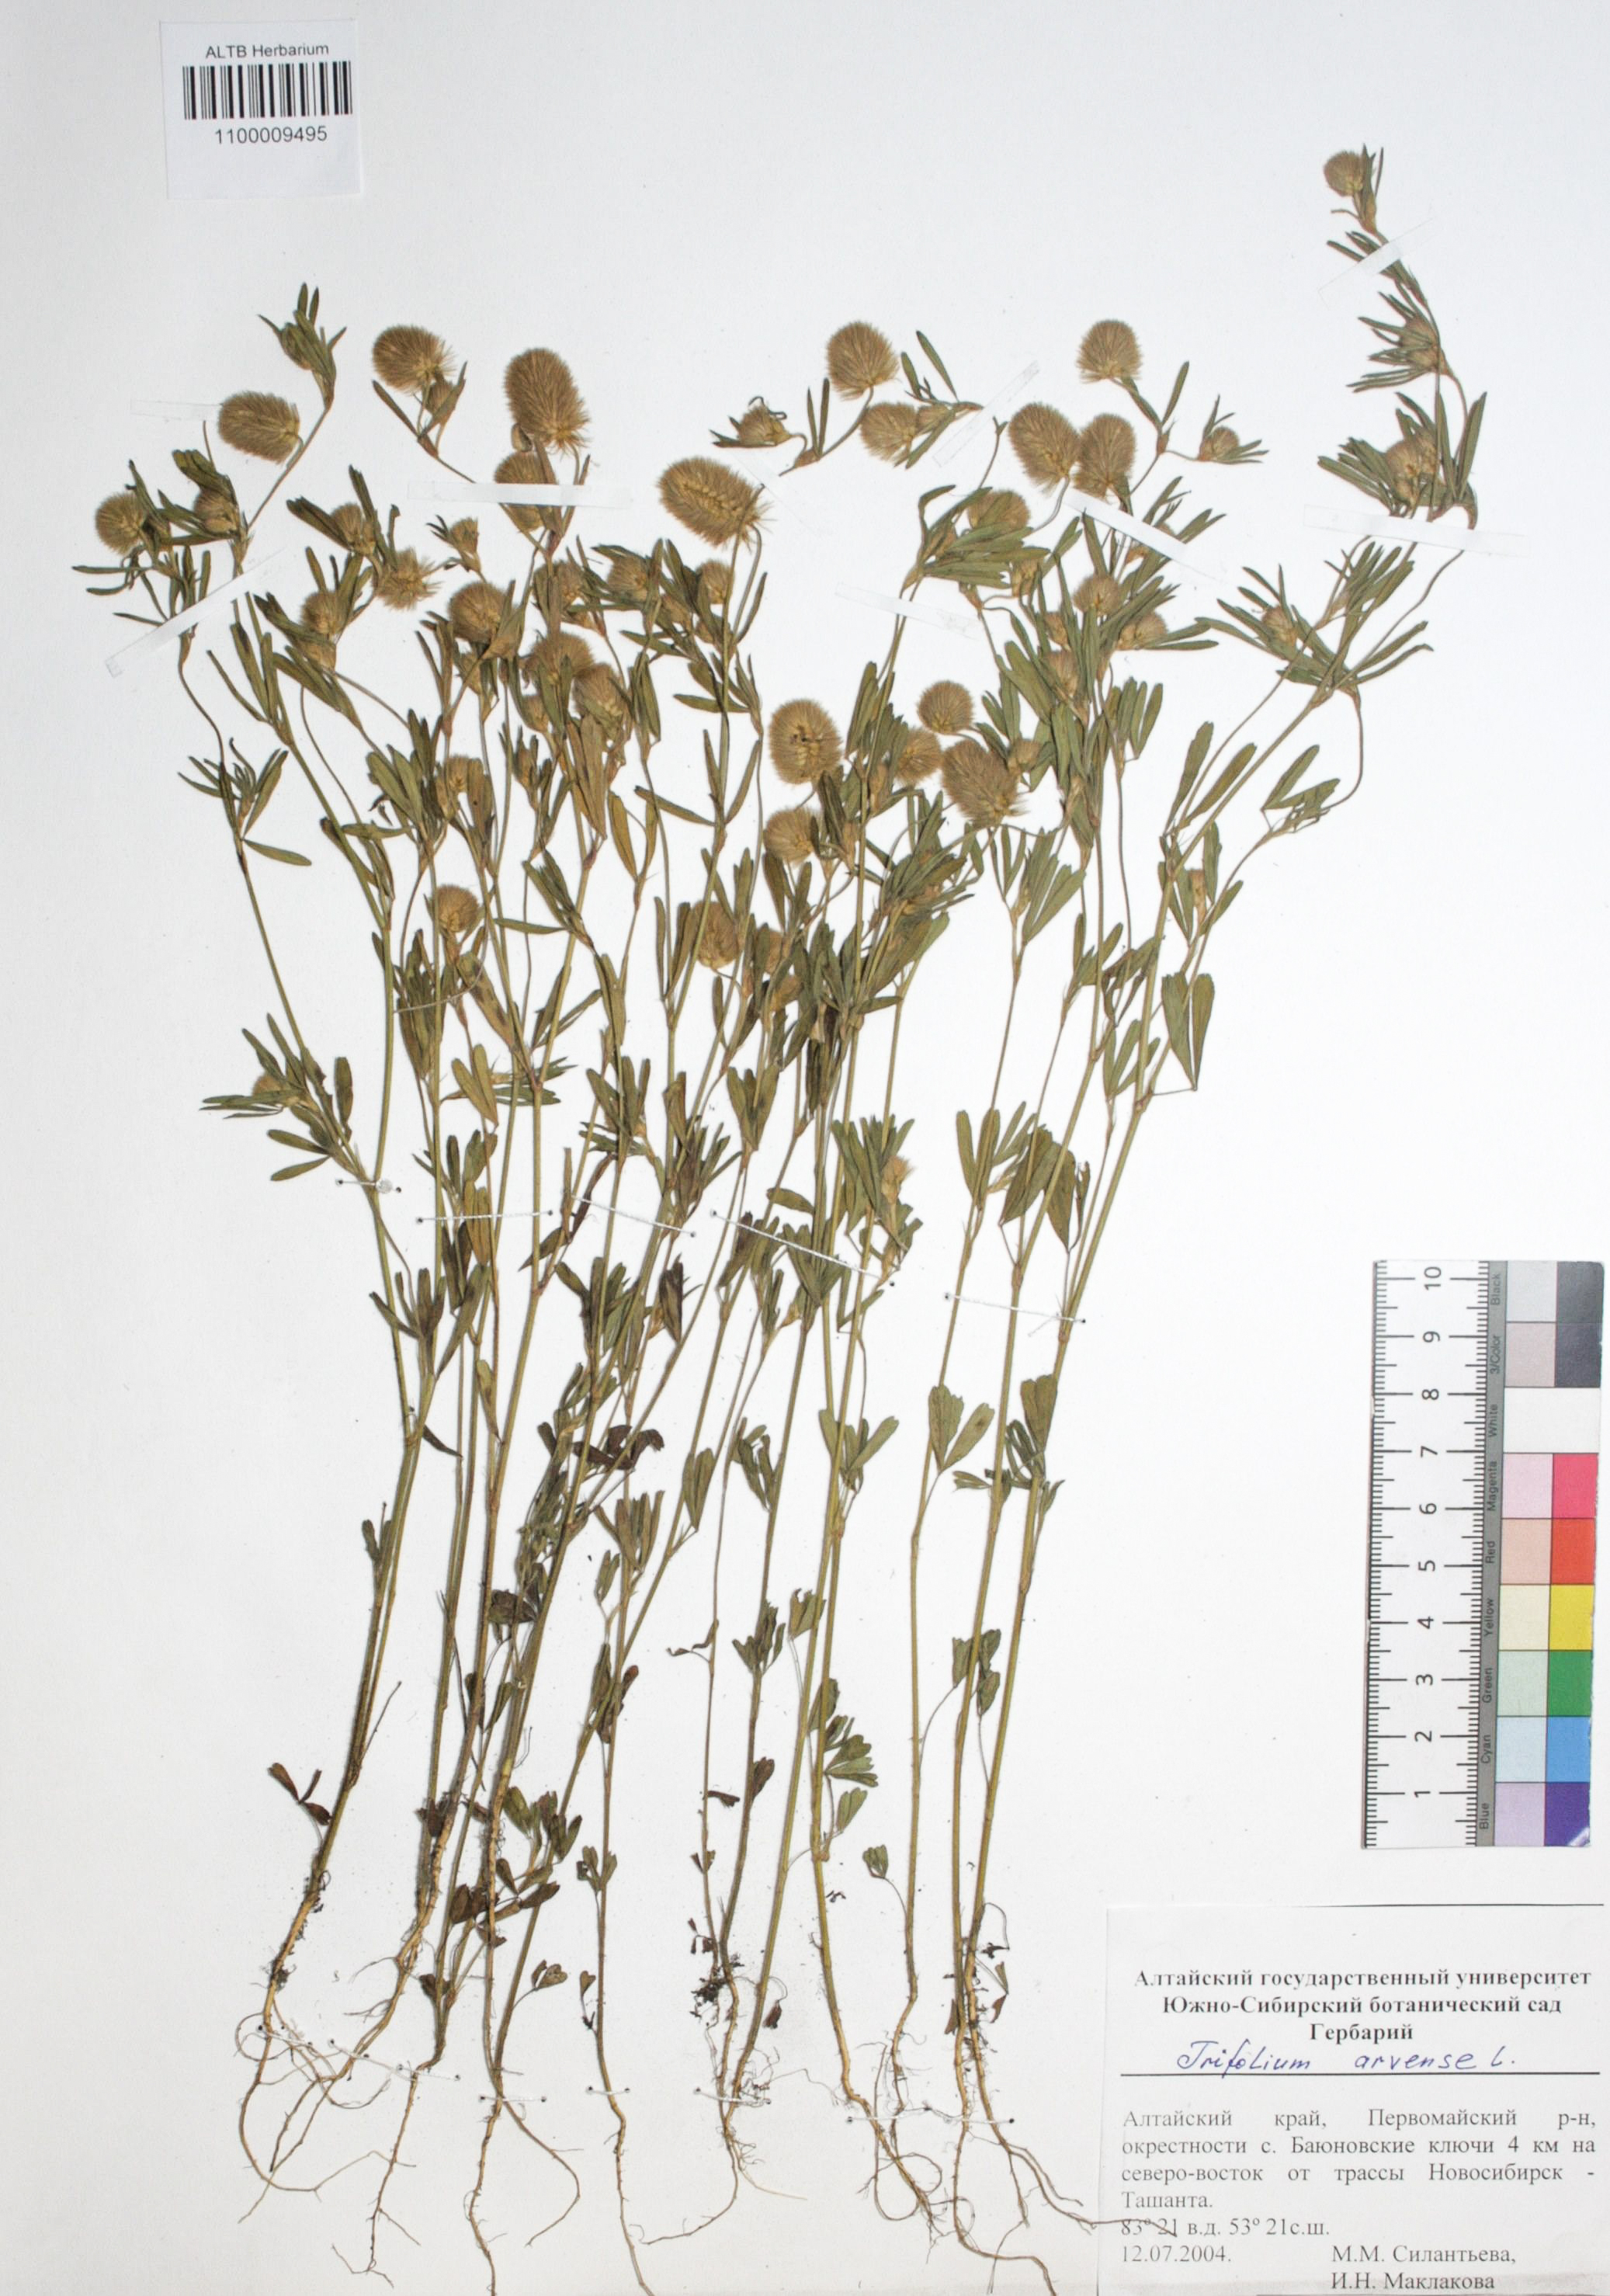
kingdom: Plantae
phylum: Tracheophyta
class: Magnoliopsida
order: Fabales
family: Fabaceae
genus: Trifolium
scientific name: Trifolium arvense
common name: Hare's-foot clover
